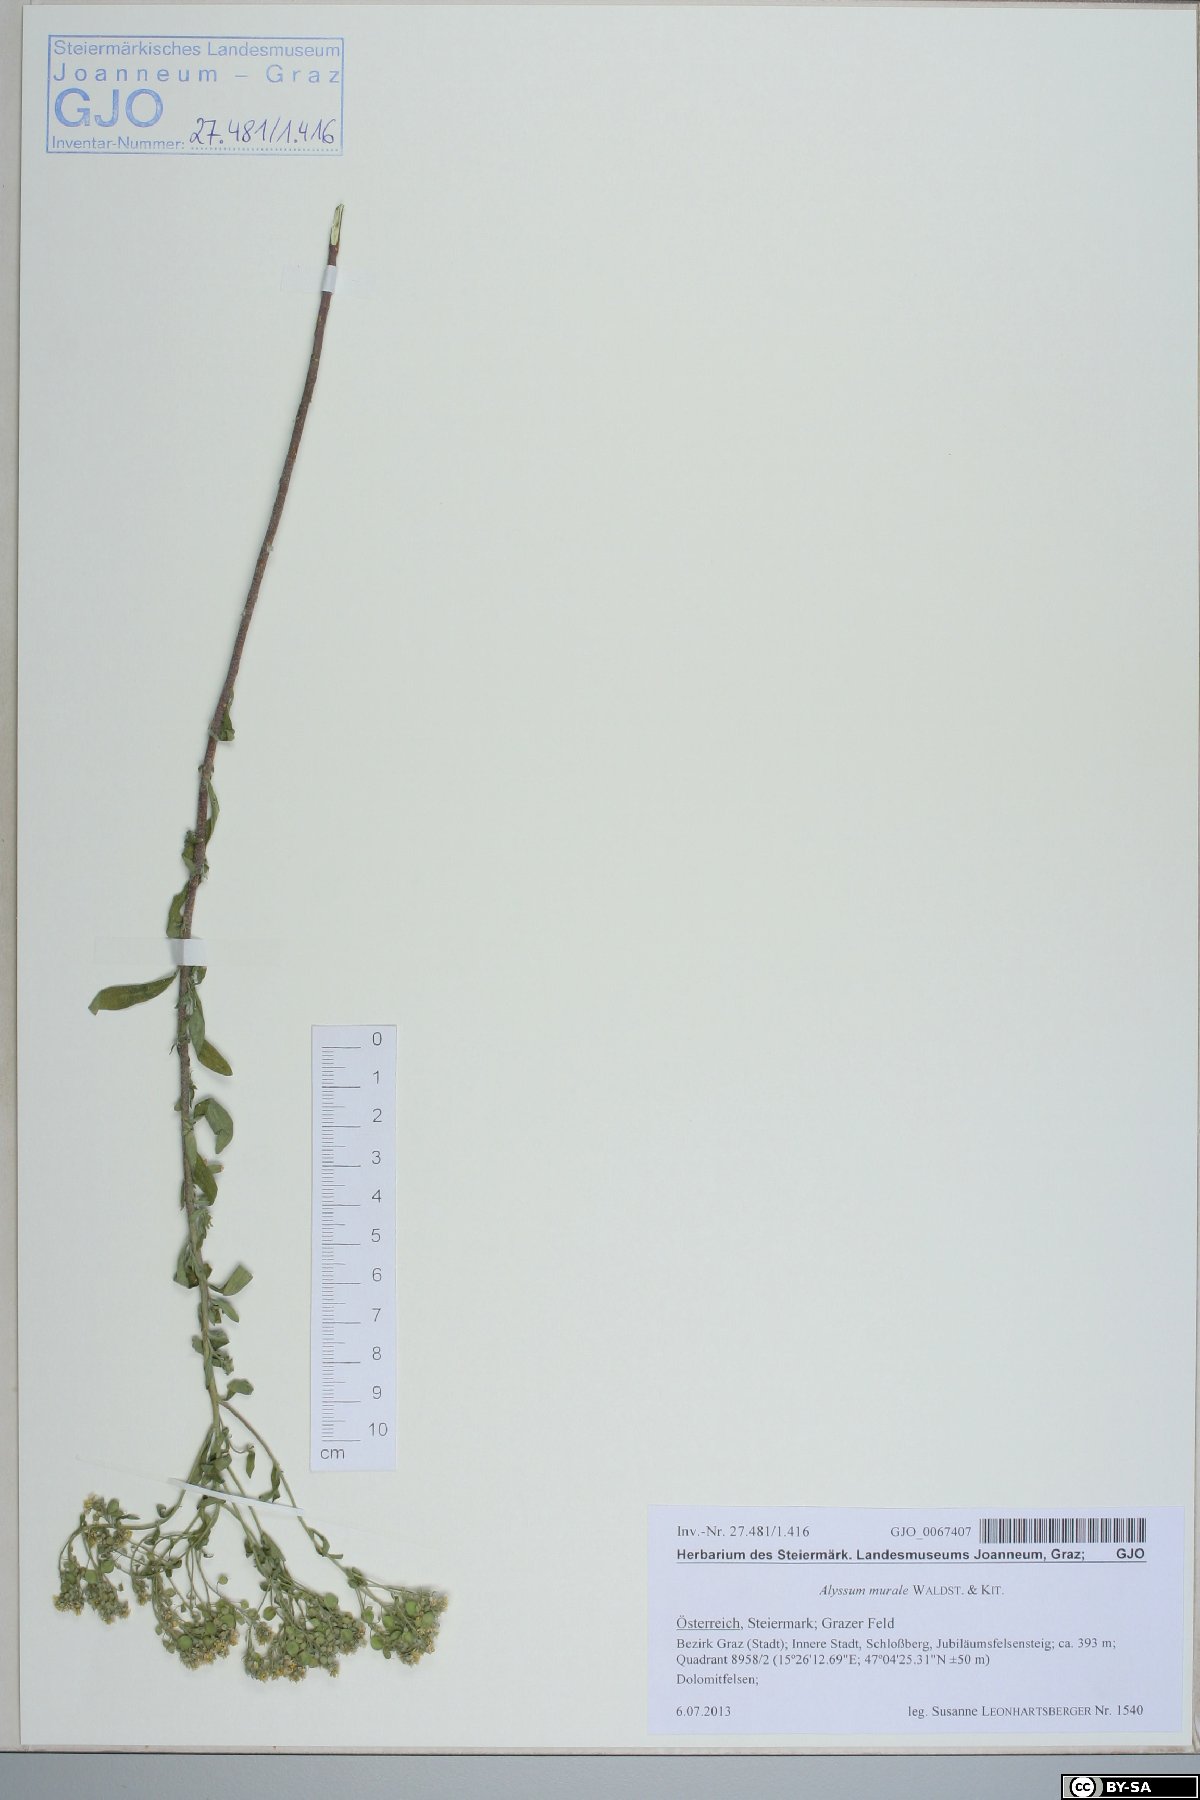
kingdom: Plantae
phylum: Tracheophyta
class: Magnoliopsida
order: Brassicales
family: Brassicaceae
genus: Odontarrhena
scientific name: Odontarrhena muralis
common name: Rock alyssum
